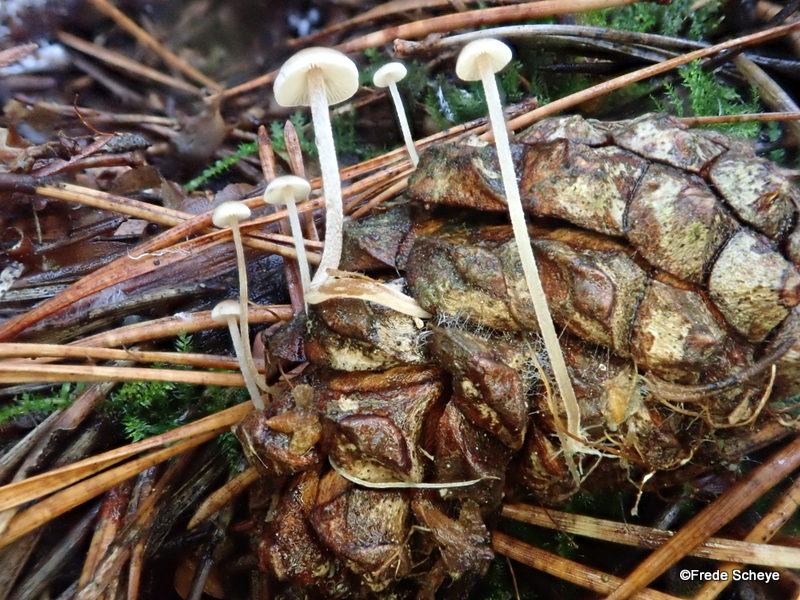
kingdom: Fungi
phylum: Basidiomycota
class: Agaricomycetes
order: Agaricales
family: Marasmiaceae
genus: Baeospora
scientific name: Baeospora myosura
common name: koglebruskhat
